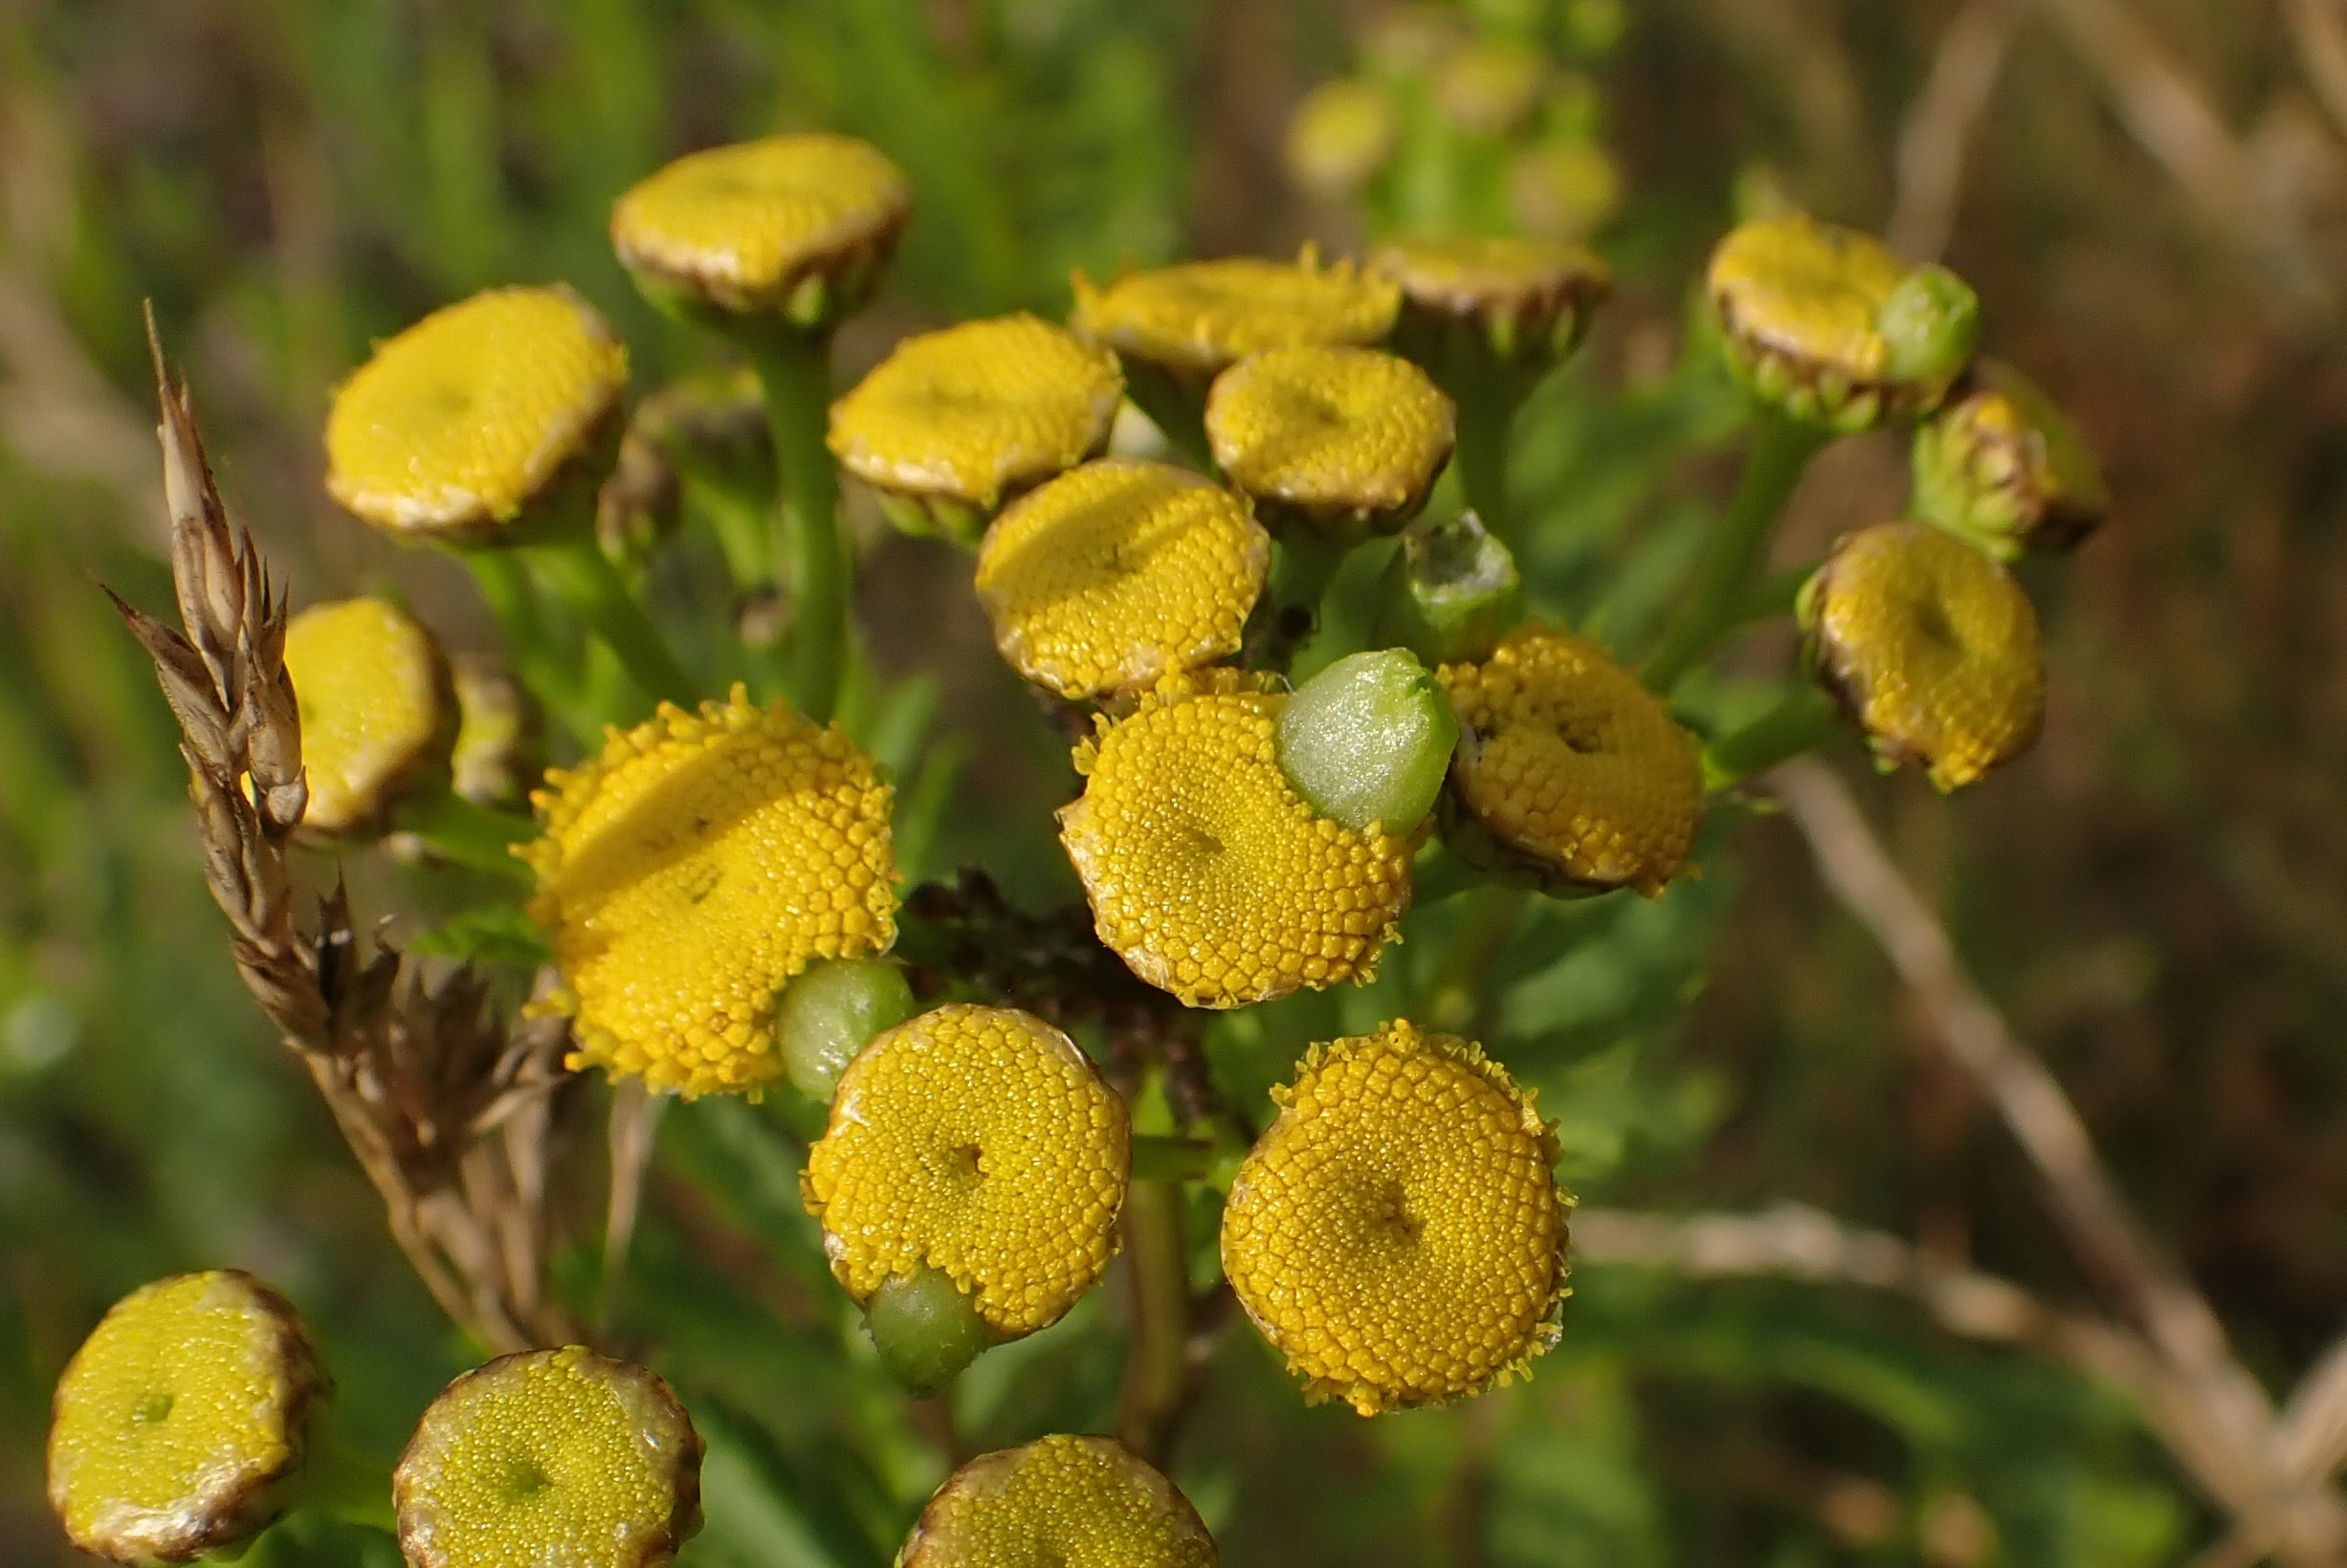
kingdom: Animalia
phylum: Arthropoda
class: Insecta
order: Diptera
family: Cecidomyiidae
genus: Rhopalomyia
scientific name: Rhopalomyia tanaceticolus
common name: Rejnfangalmyg
